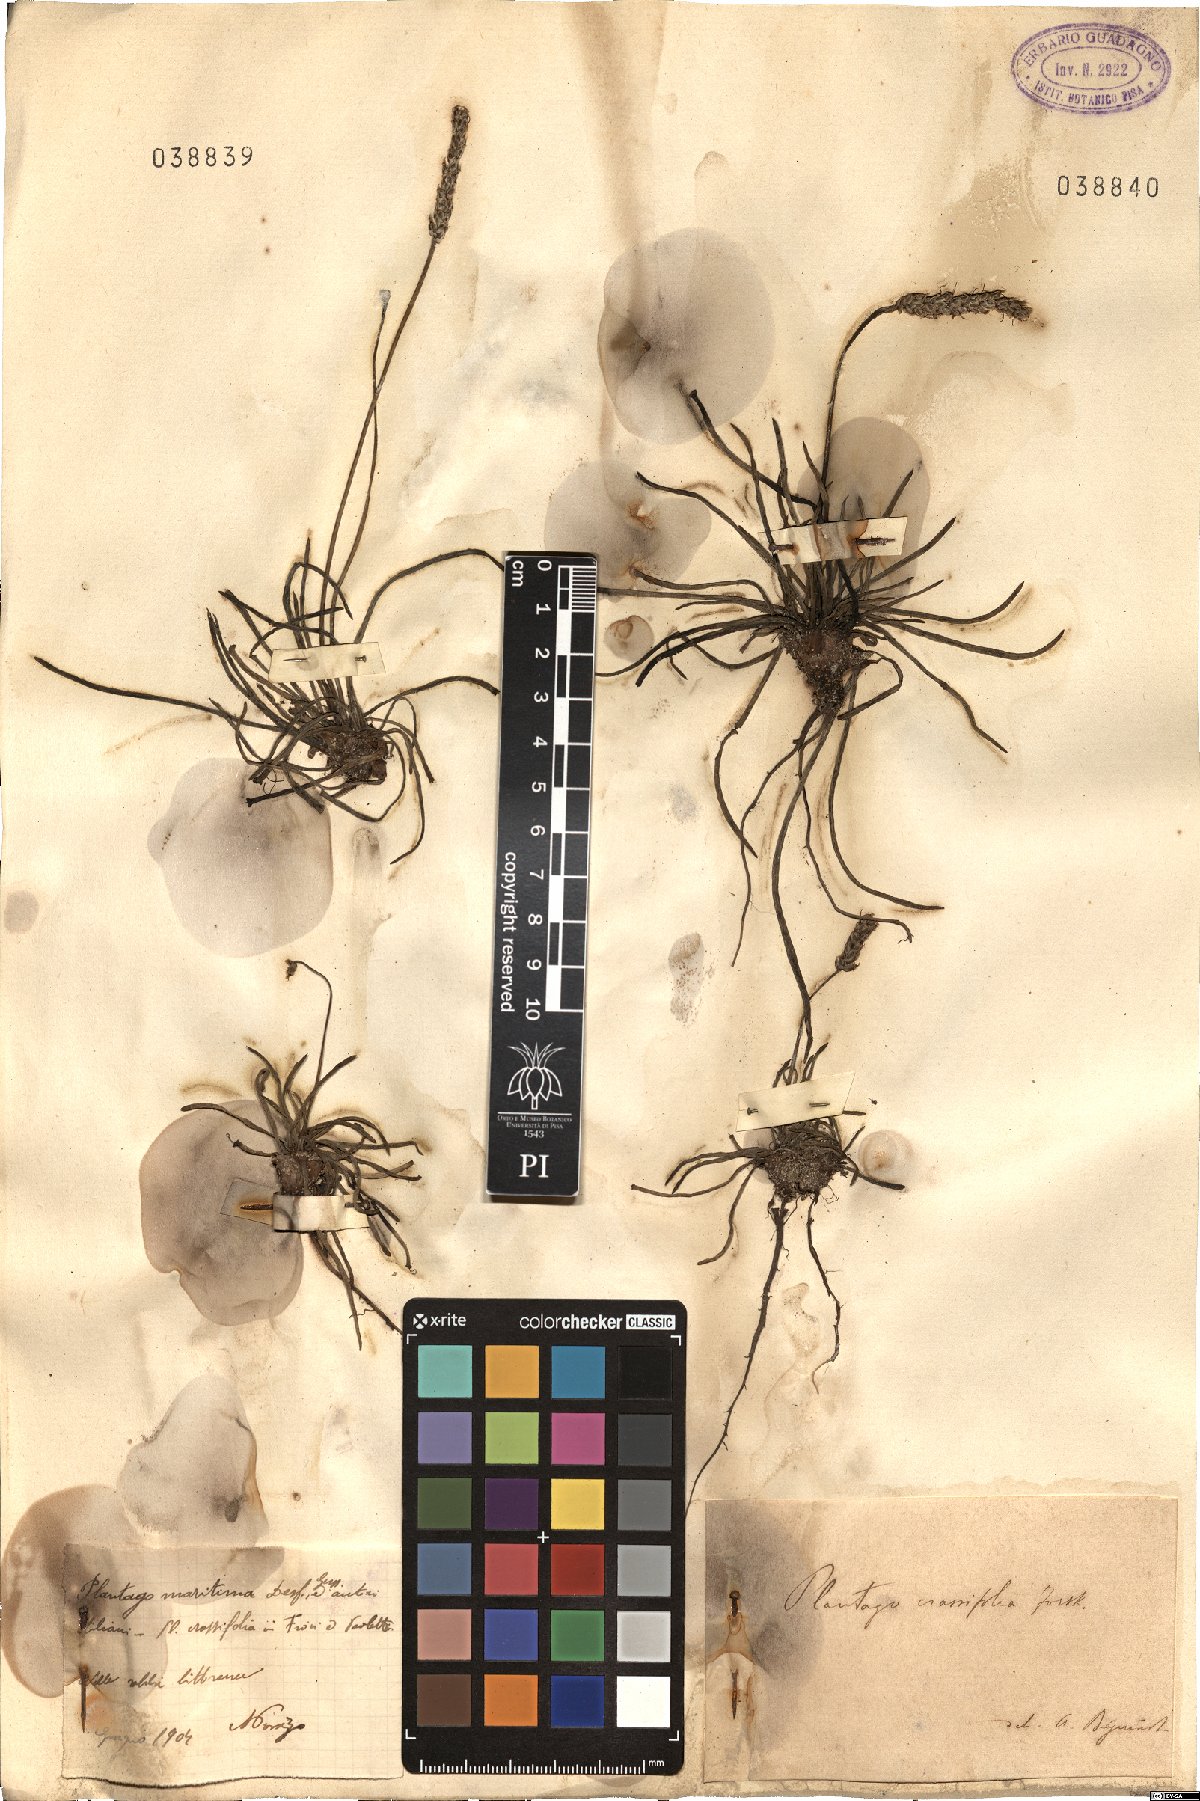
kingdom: Plantae
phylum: Tracheophyta
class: Magnoliopsida
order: Lamiales
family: Plantaginaceae
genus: Plantago
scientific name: Plantago maritima
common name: Sea plantain
